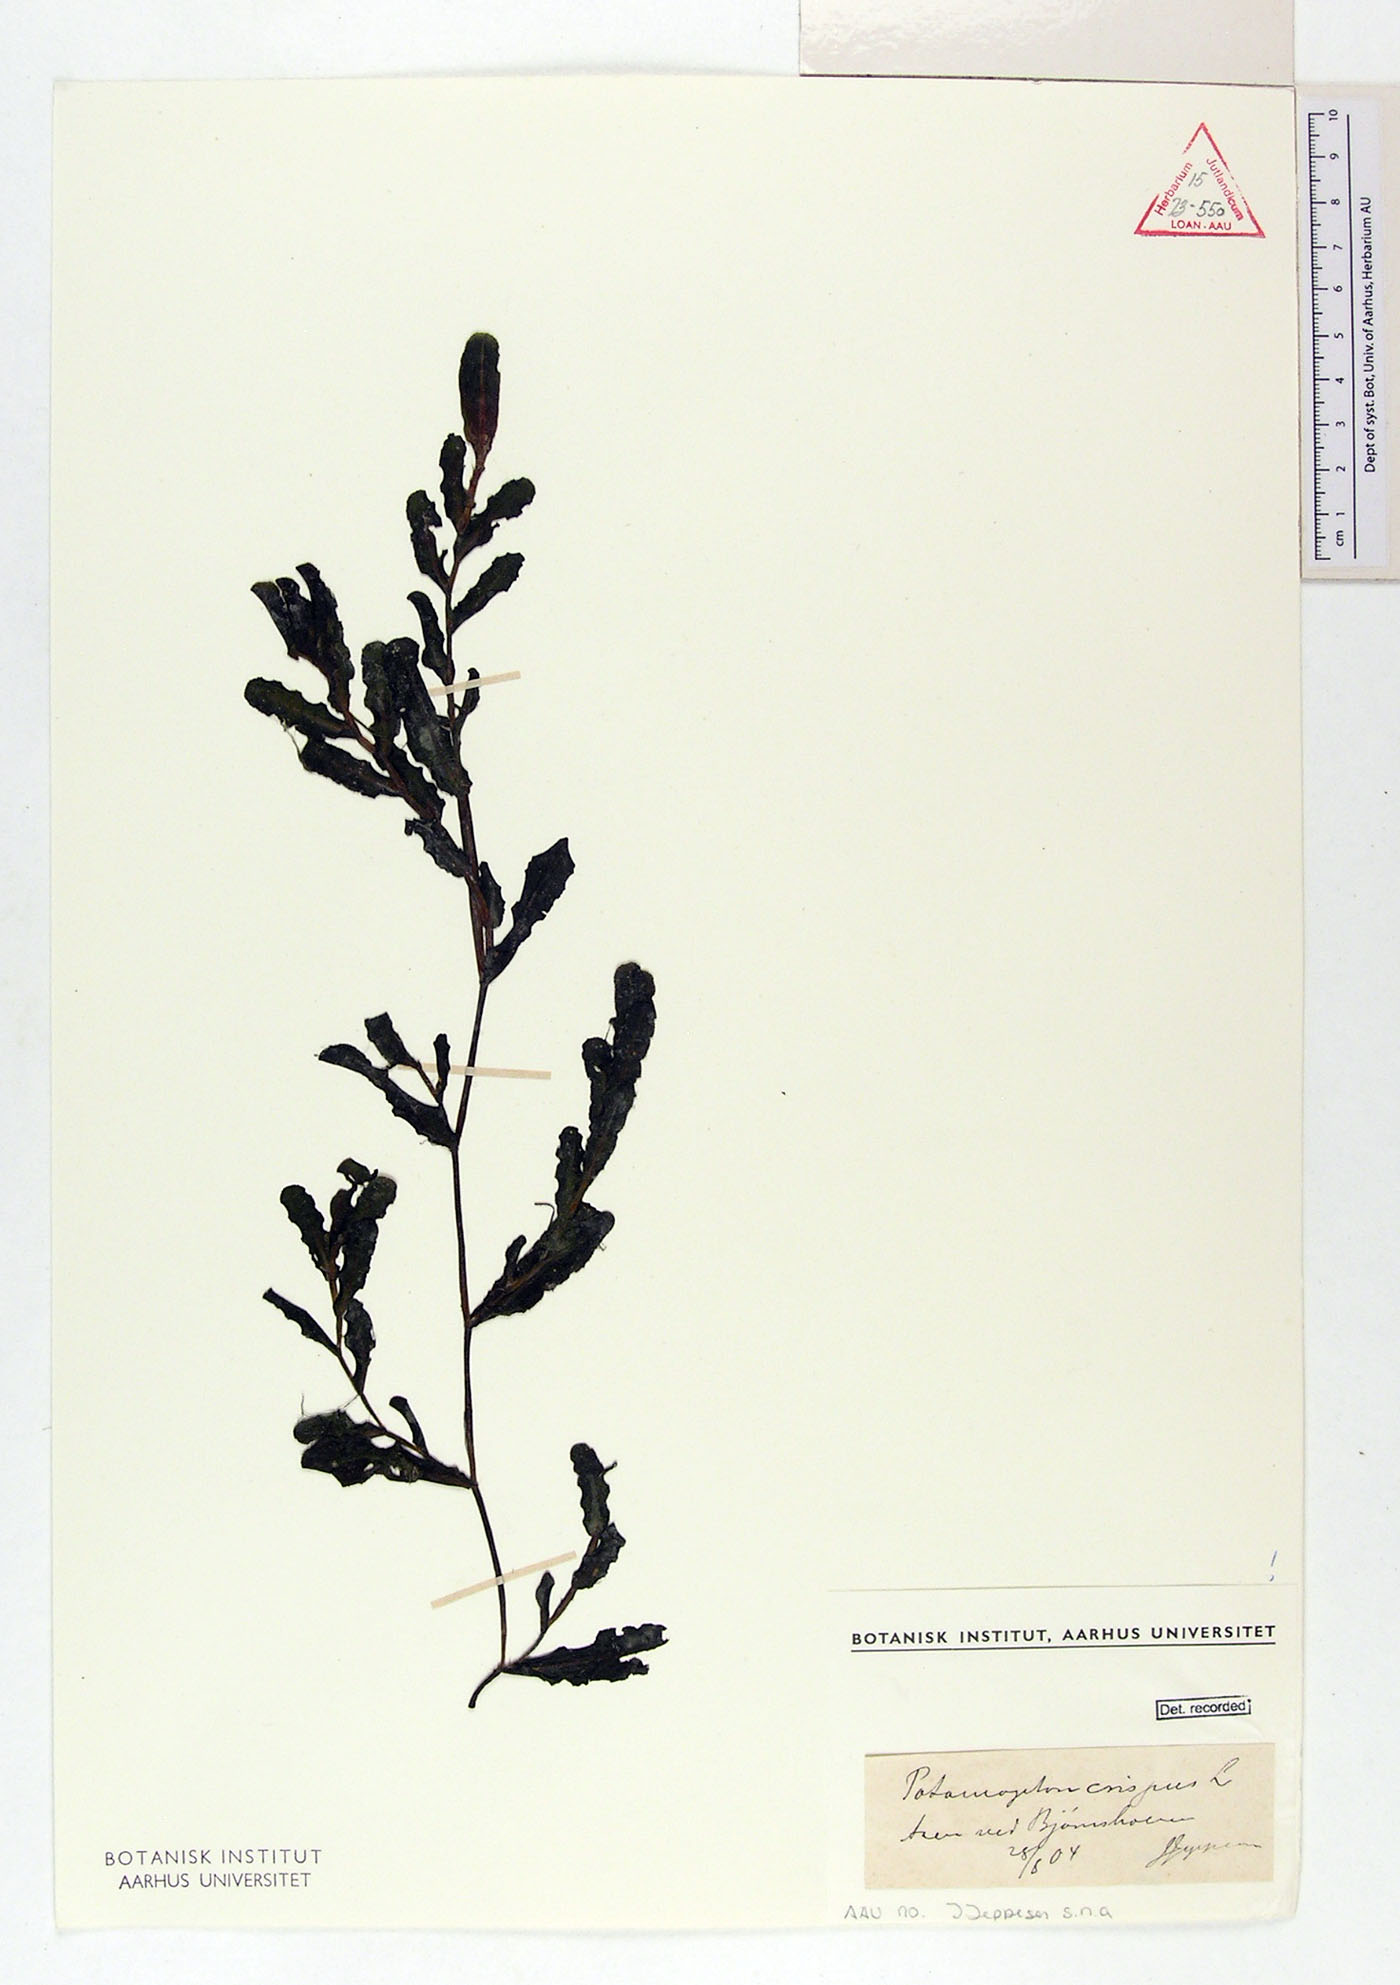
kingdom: Plantae
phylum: Tracheophyta
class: Liliopsida
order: Alismatales
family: Potamogetonaceae
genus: Potamogeton
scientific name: Potamogeton crispus
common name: Curled pondweed
